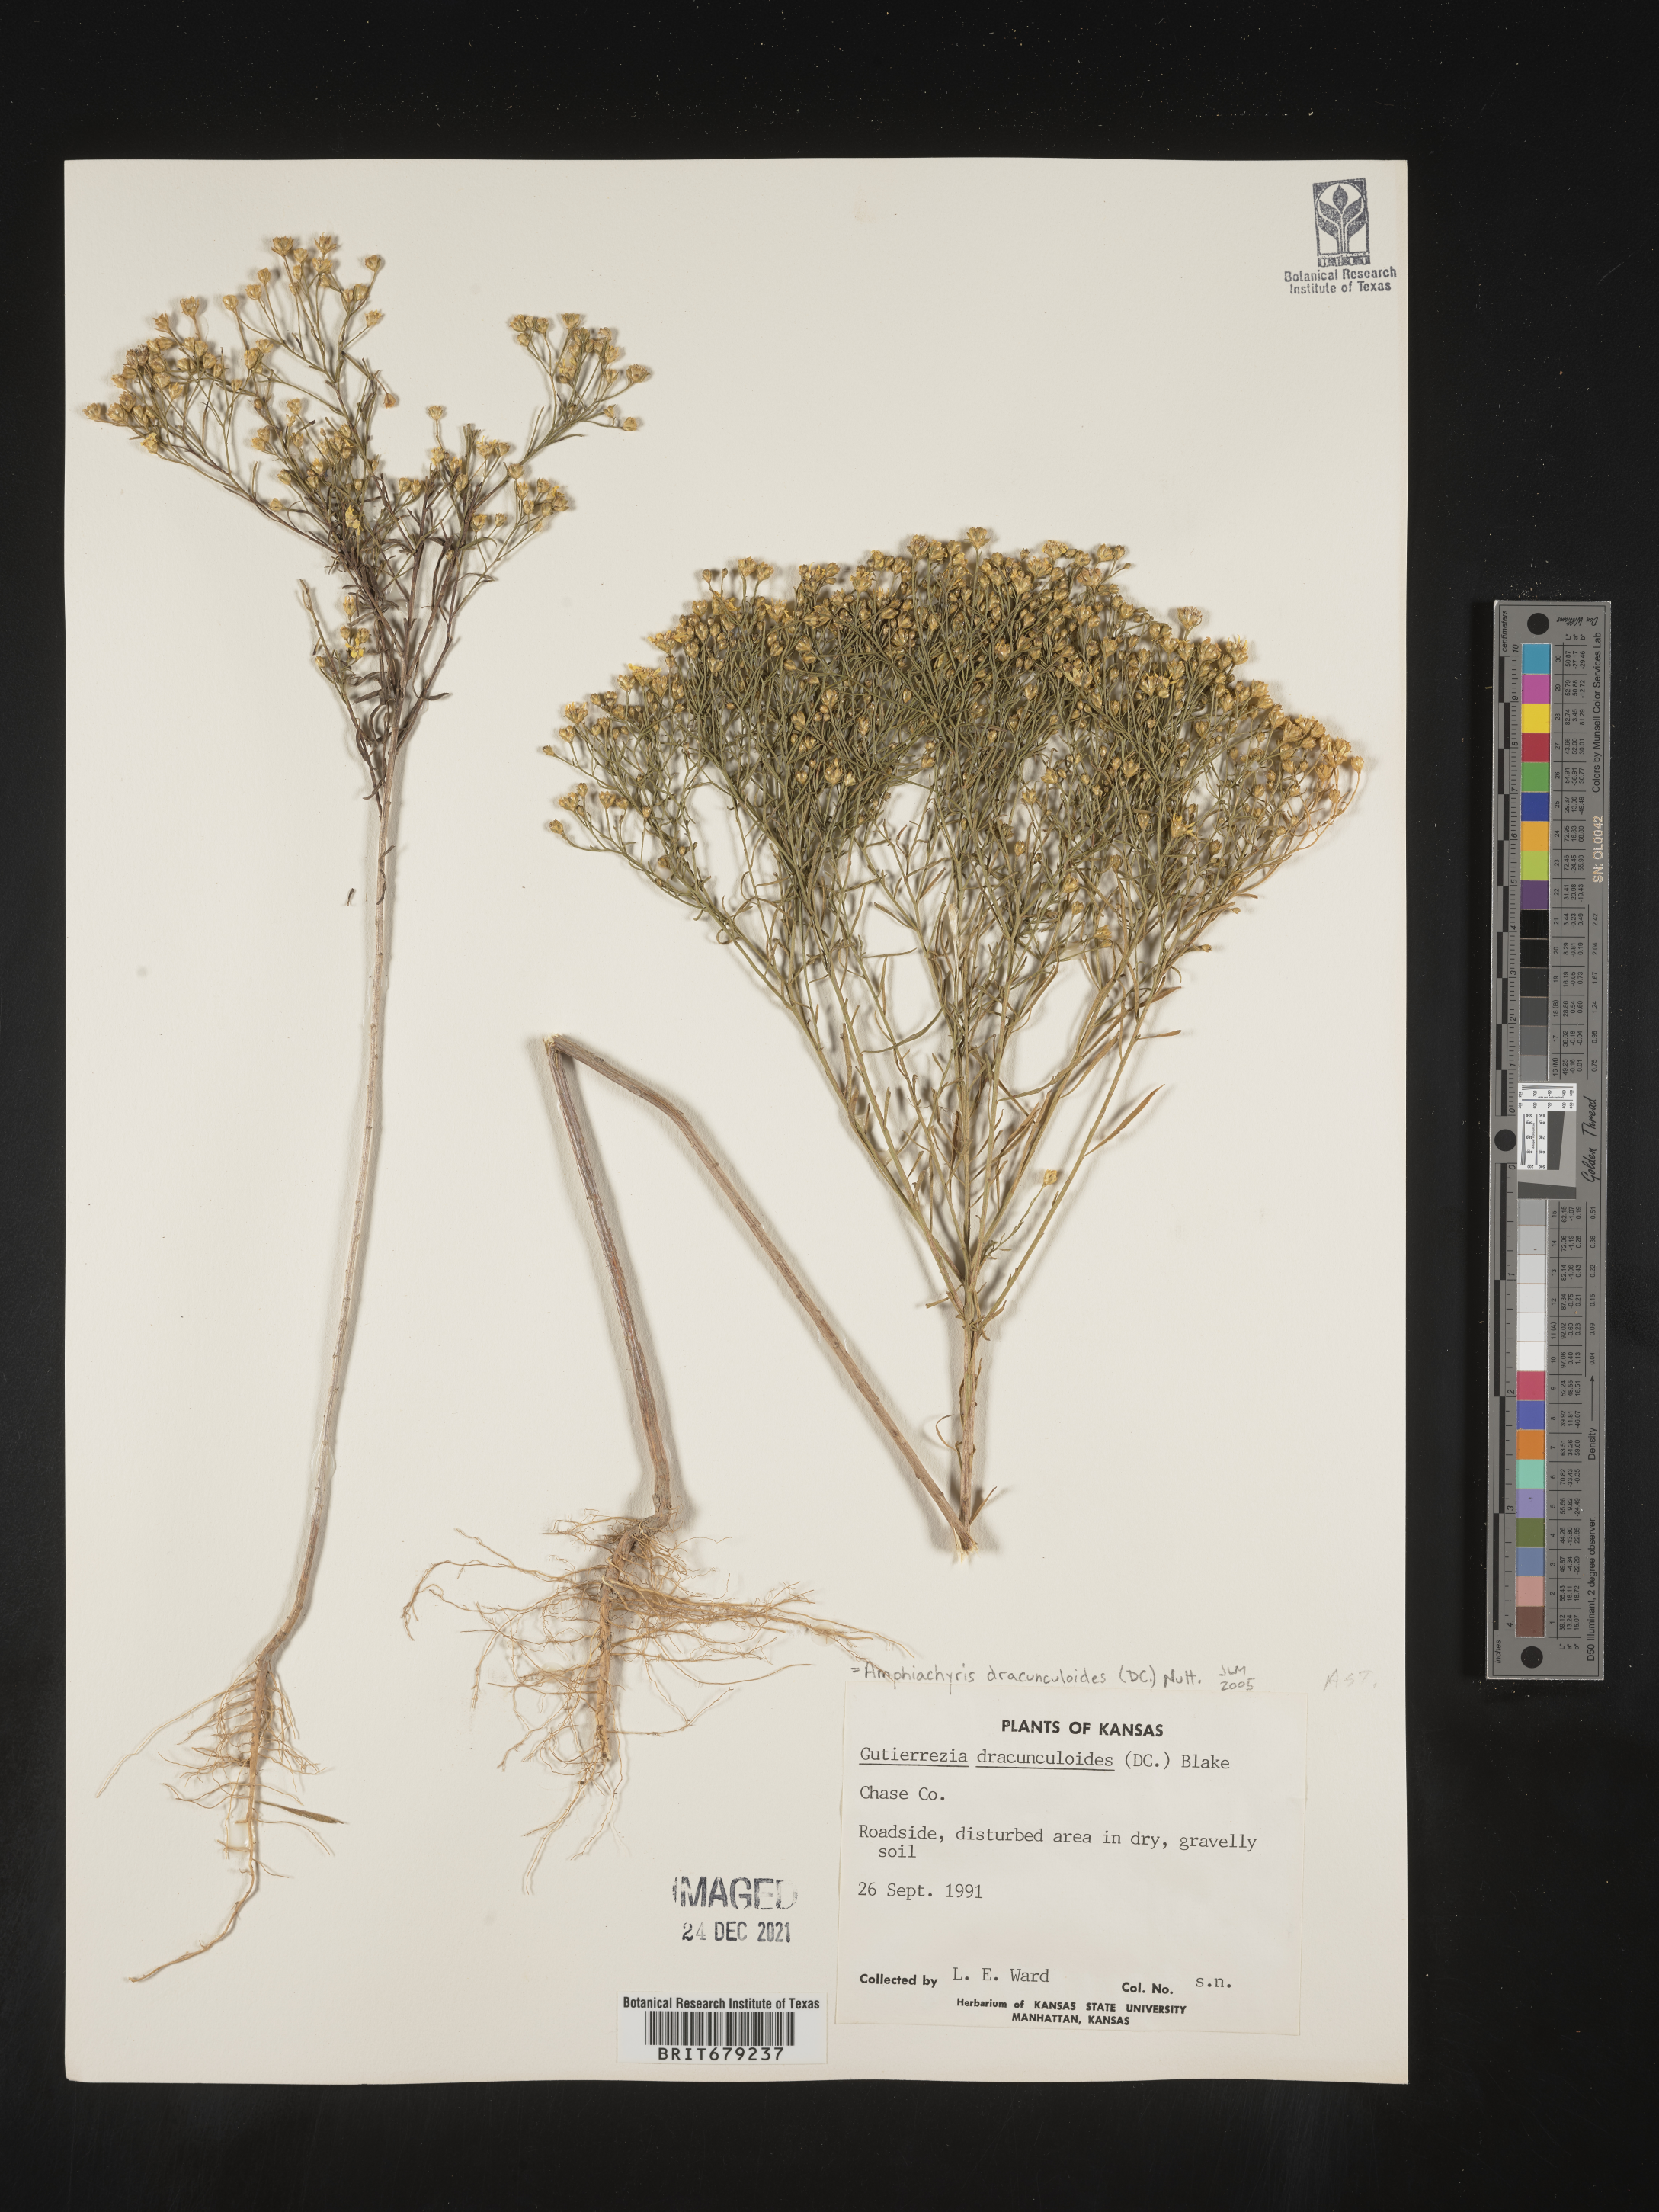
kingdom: Plantae
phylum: Tracheophyta
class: Magnoliopsida
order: Asterales
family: Asteraceae
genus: Amphiachyris
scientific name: Amphiachyris dracunculoides
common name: Broomweed
